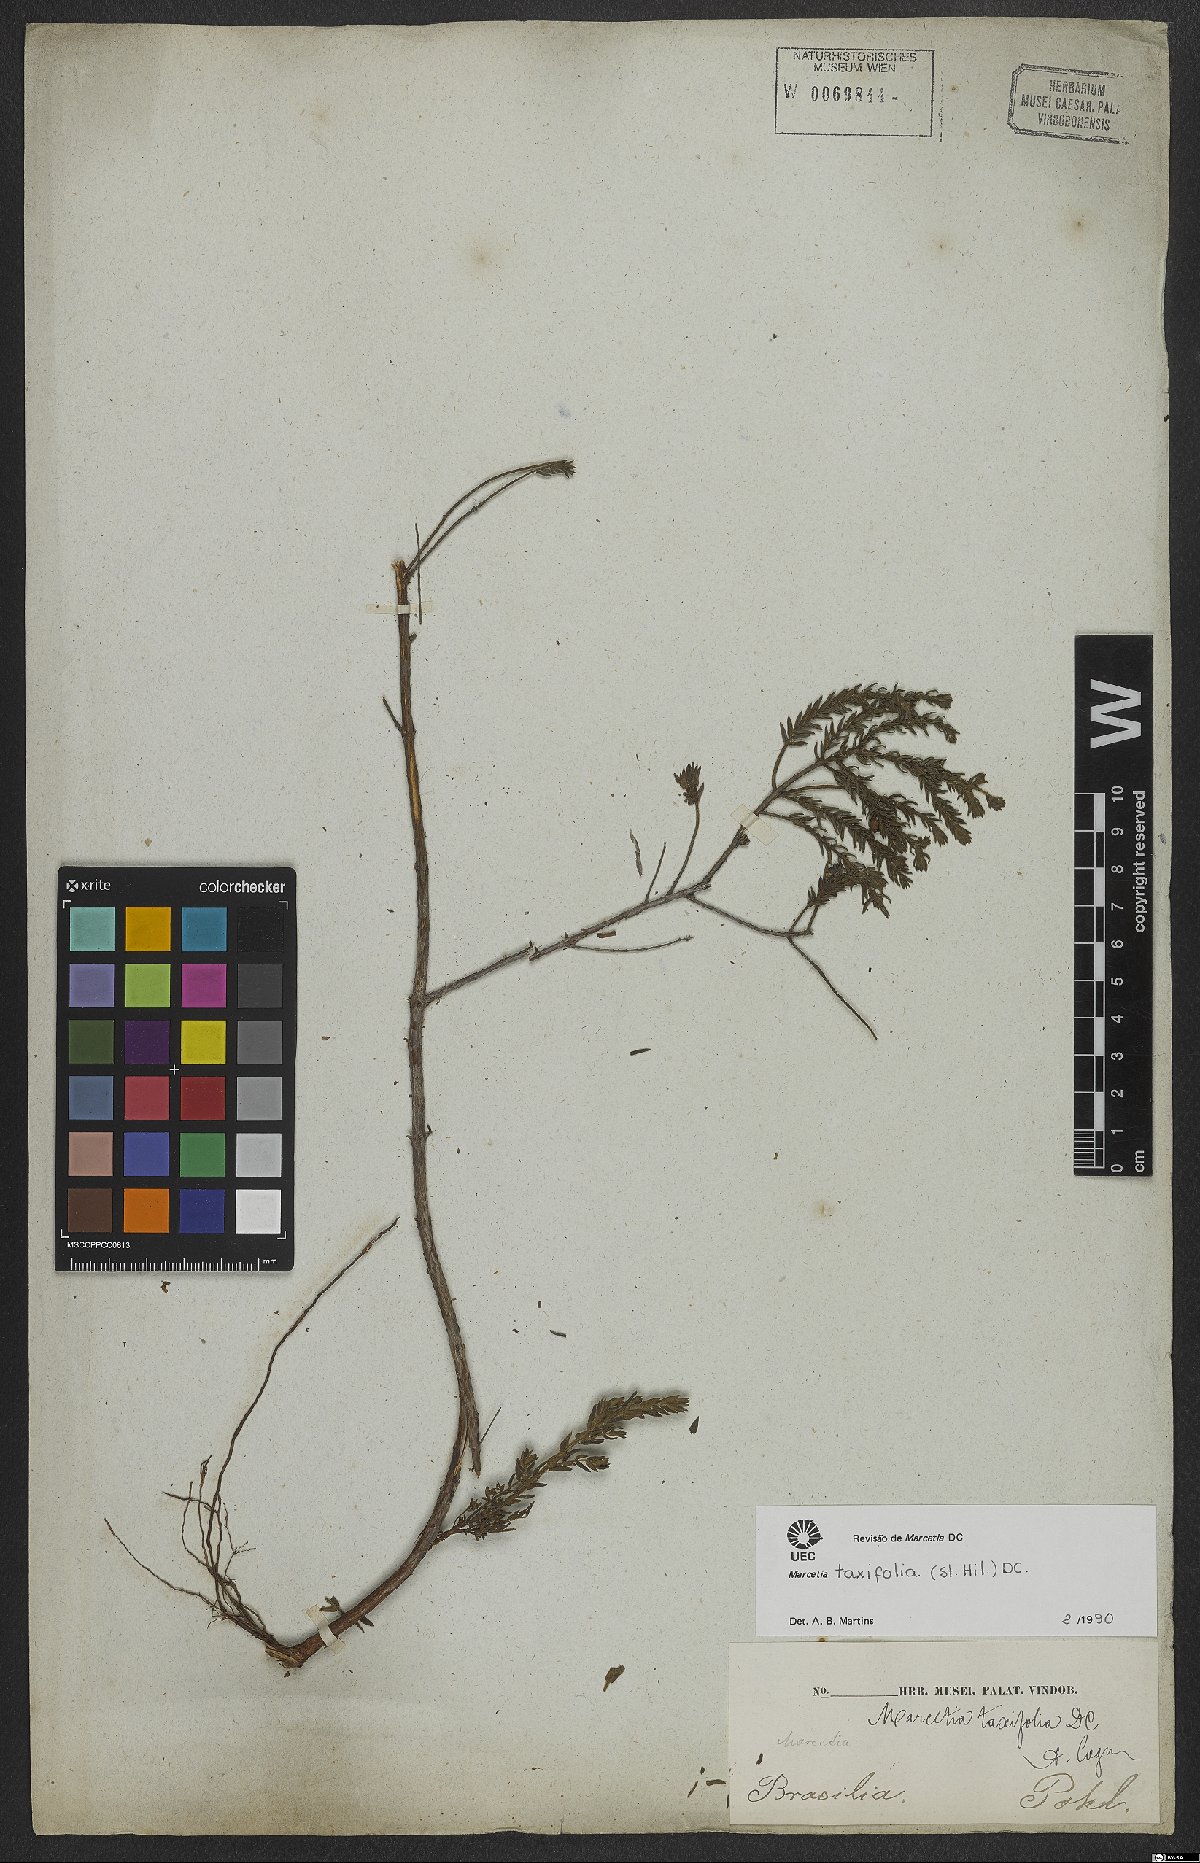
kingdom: Plantae
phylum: Tracheophyta
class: Magnoliopsida
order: Myrtales
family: Melastomataceae
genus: Marcetia
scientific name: Marcetia taxifolia
